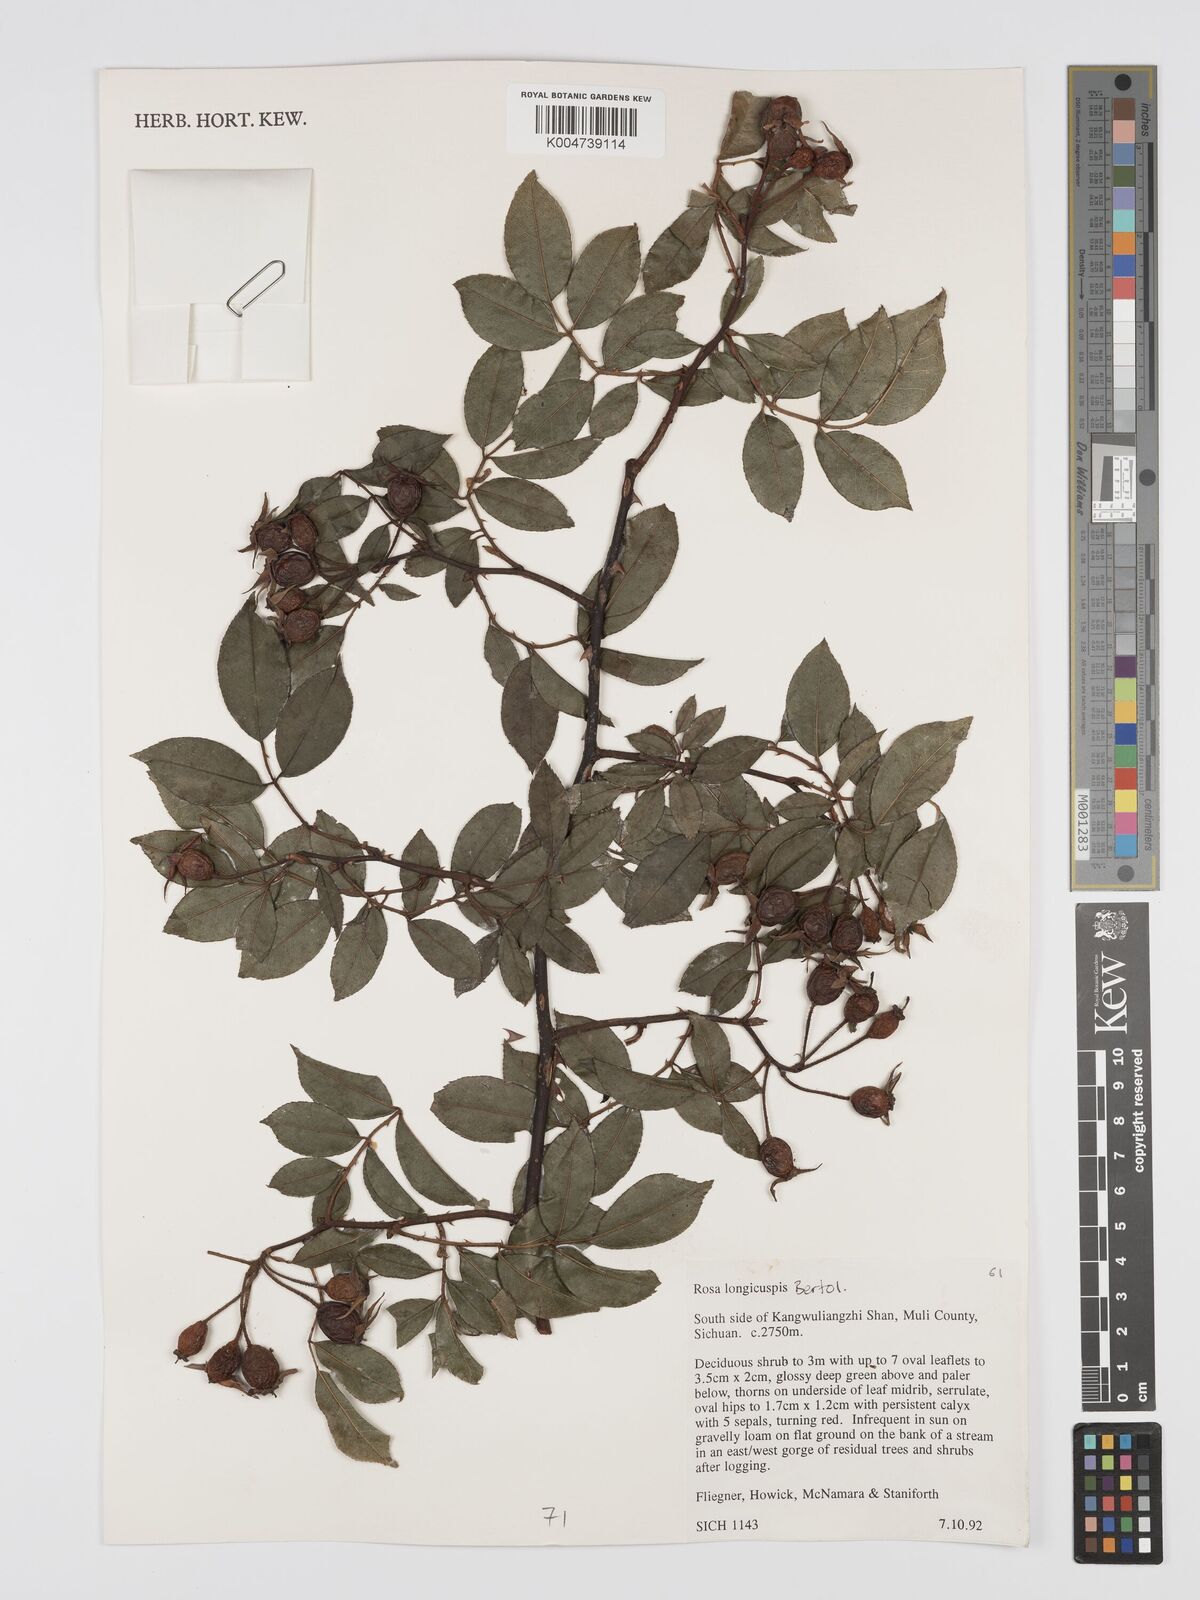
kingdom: Plantae
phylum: Tracheophyta
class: Magnoliopsida
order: Rosales
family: Rosaceae
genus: Rosa
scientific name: Rosa longicuspis
